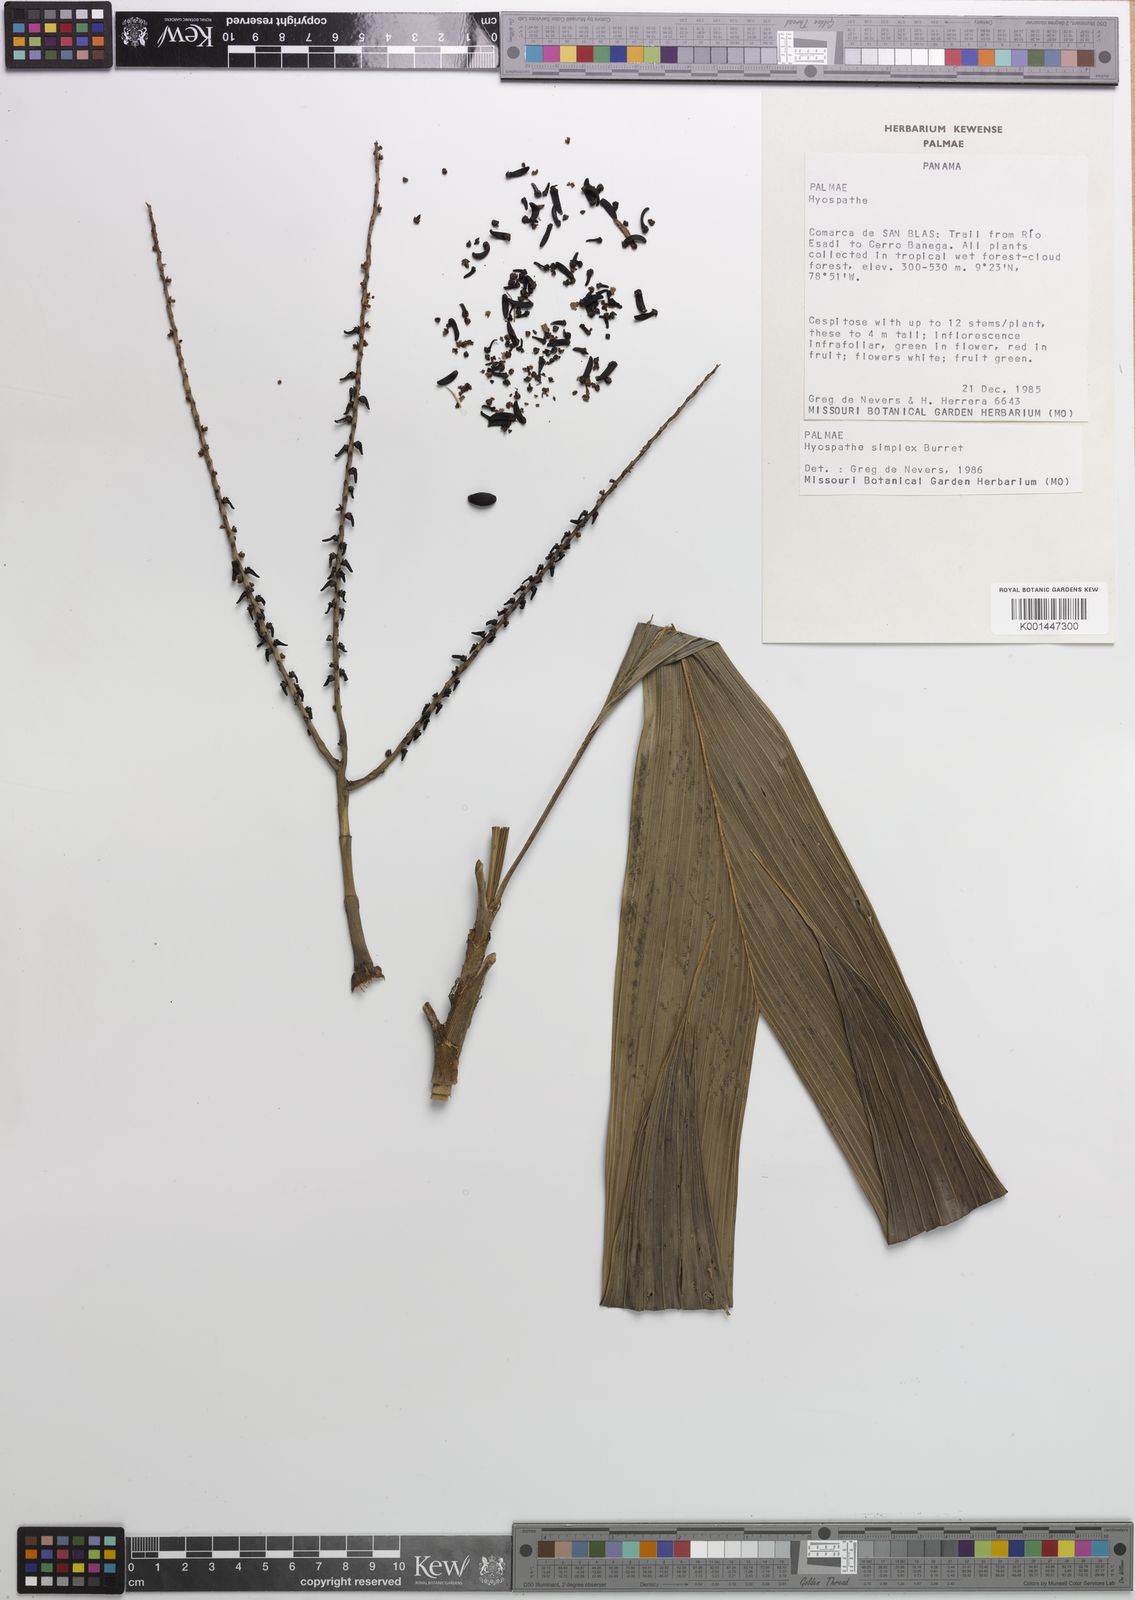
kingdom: Plantae
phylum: Tracheophyta
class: Liliopsida
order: Arecales
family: Arecaceae
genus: Hyospathe
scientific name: Hyospathe elegans
